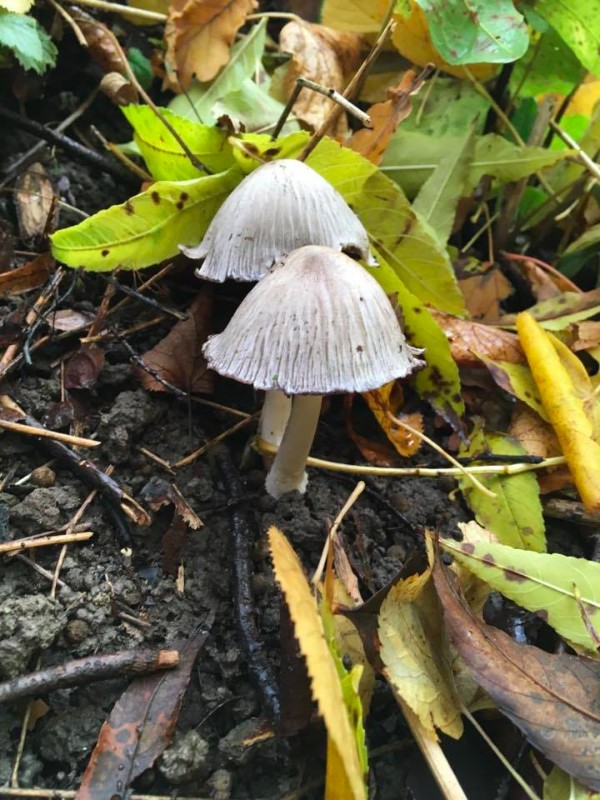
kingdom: Fungi
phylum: Basidiomycota
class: Agaricomycetes
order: Agaricales
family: Psathyrellaceae
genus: Coprinopsis
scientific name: Coprinopsis
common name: blækhat
